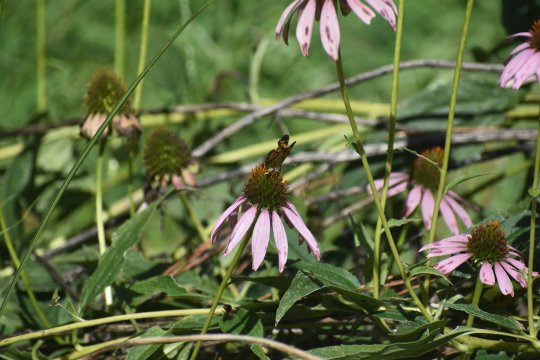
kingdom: Animalia
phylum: Arthropoda
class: Insecta
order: Lepidoptera
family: Nymphalidae
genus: Phyciodes
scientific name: Phyciodes tharos
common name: Pearl Crescent
